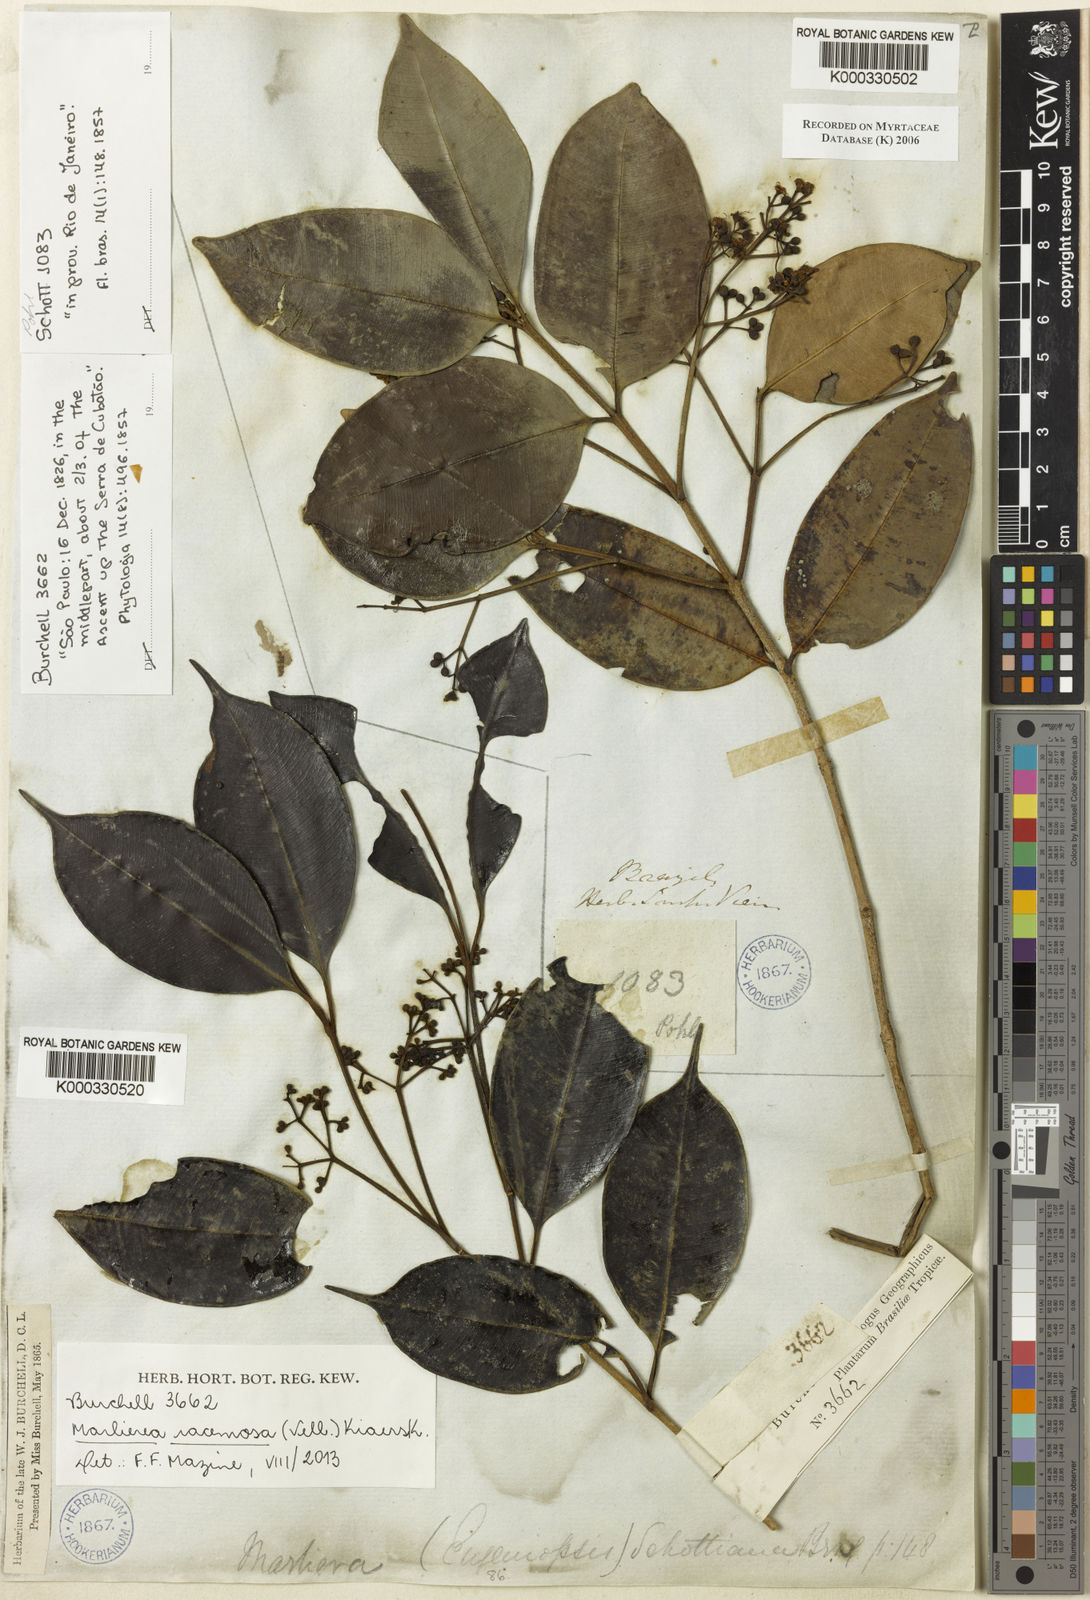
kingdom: Plantae
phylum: Tracheophyta
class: Magnoliopsida
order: Myrtales
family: Myrtaceae
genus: Myrcia
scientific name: Myrcia vellozoi
